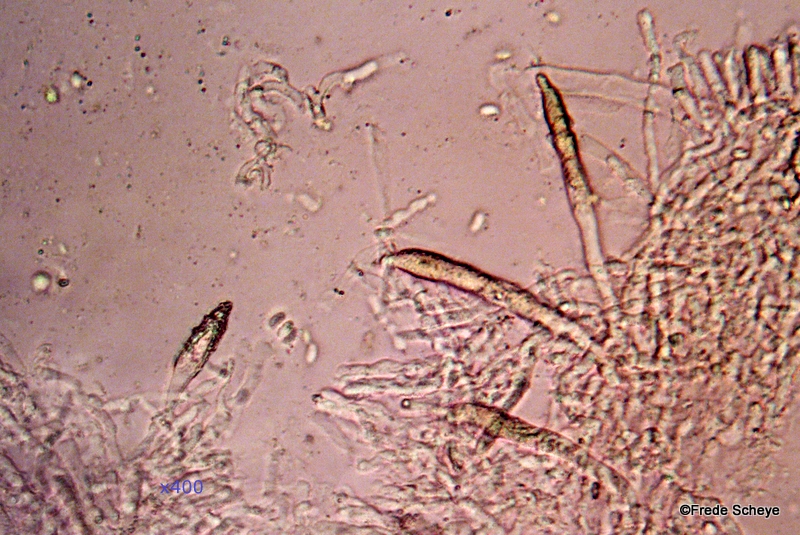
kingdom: Fungi
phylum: Basidiomycota
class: Agaricomycetes
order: Russulales
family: Peniophoraceae
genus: Peniophora
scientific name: Peniophora incarnata
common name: laksefarvet voksskind
